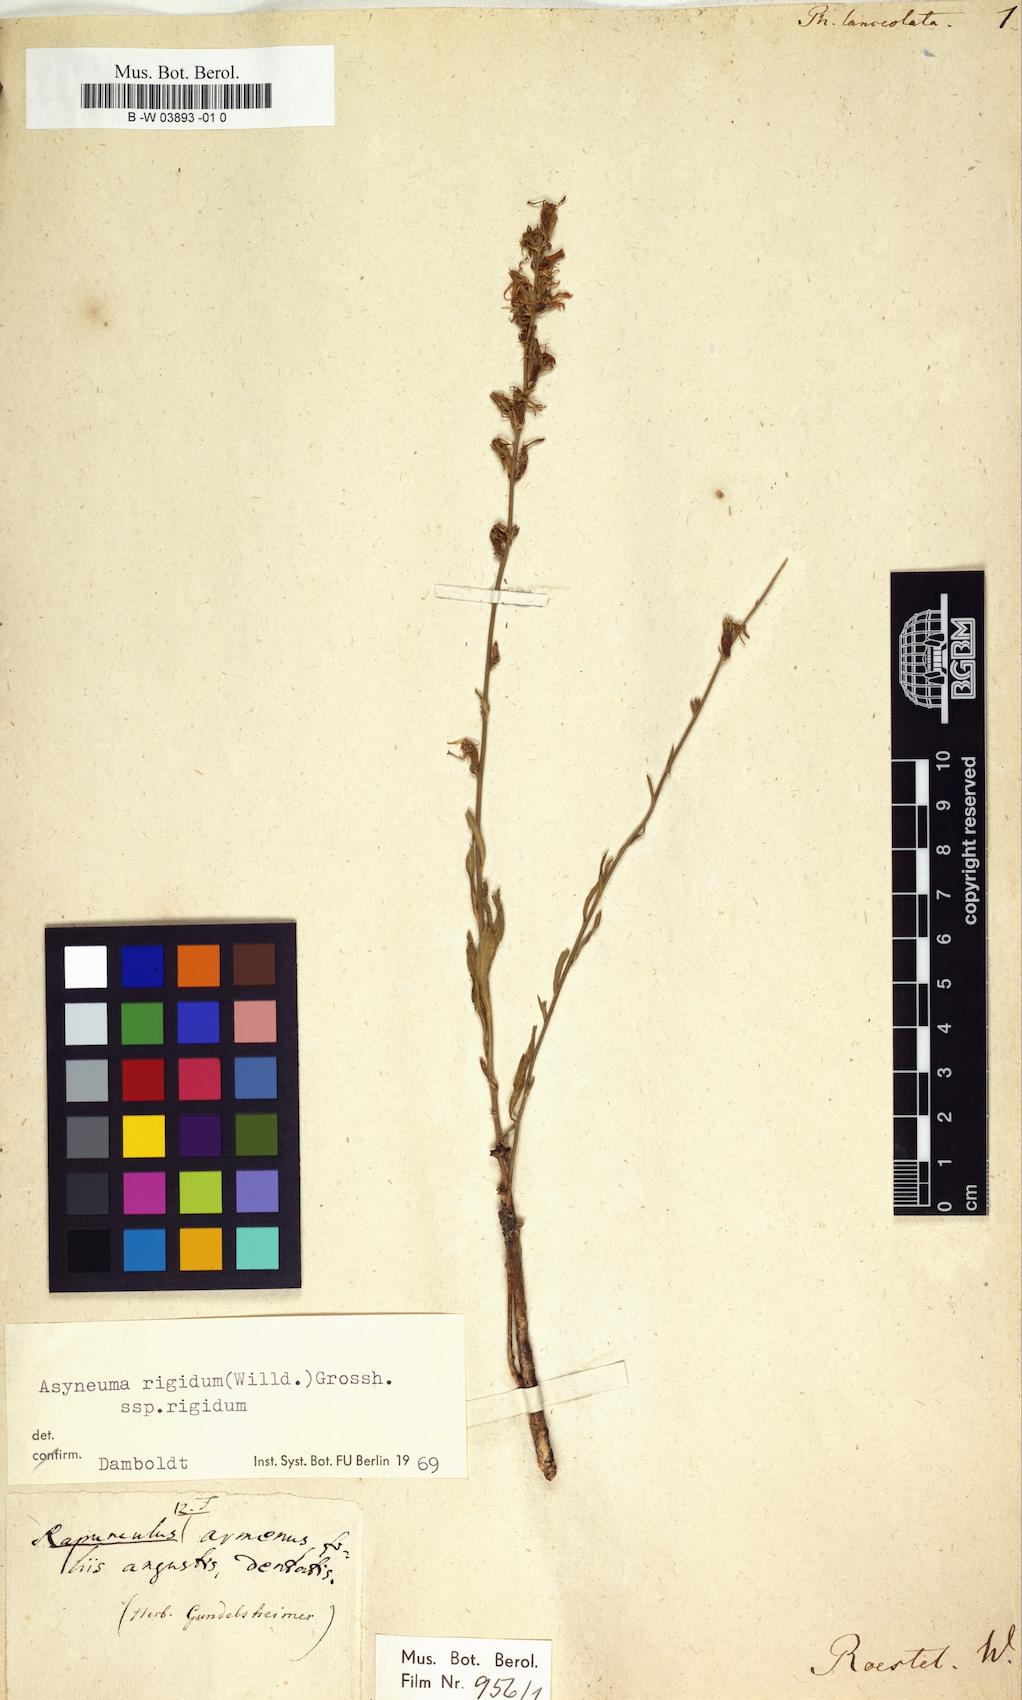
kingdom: Plantae
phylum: Tracheophyta
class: Magnoliopsida
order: Asterales
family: Campanulaceae
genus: Asyneuma
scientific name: Asyneuma rigidum
